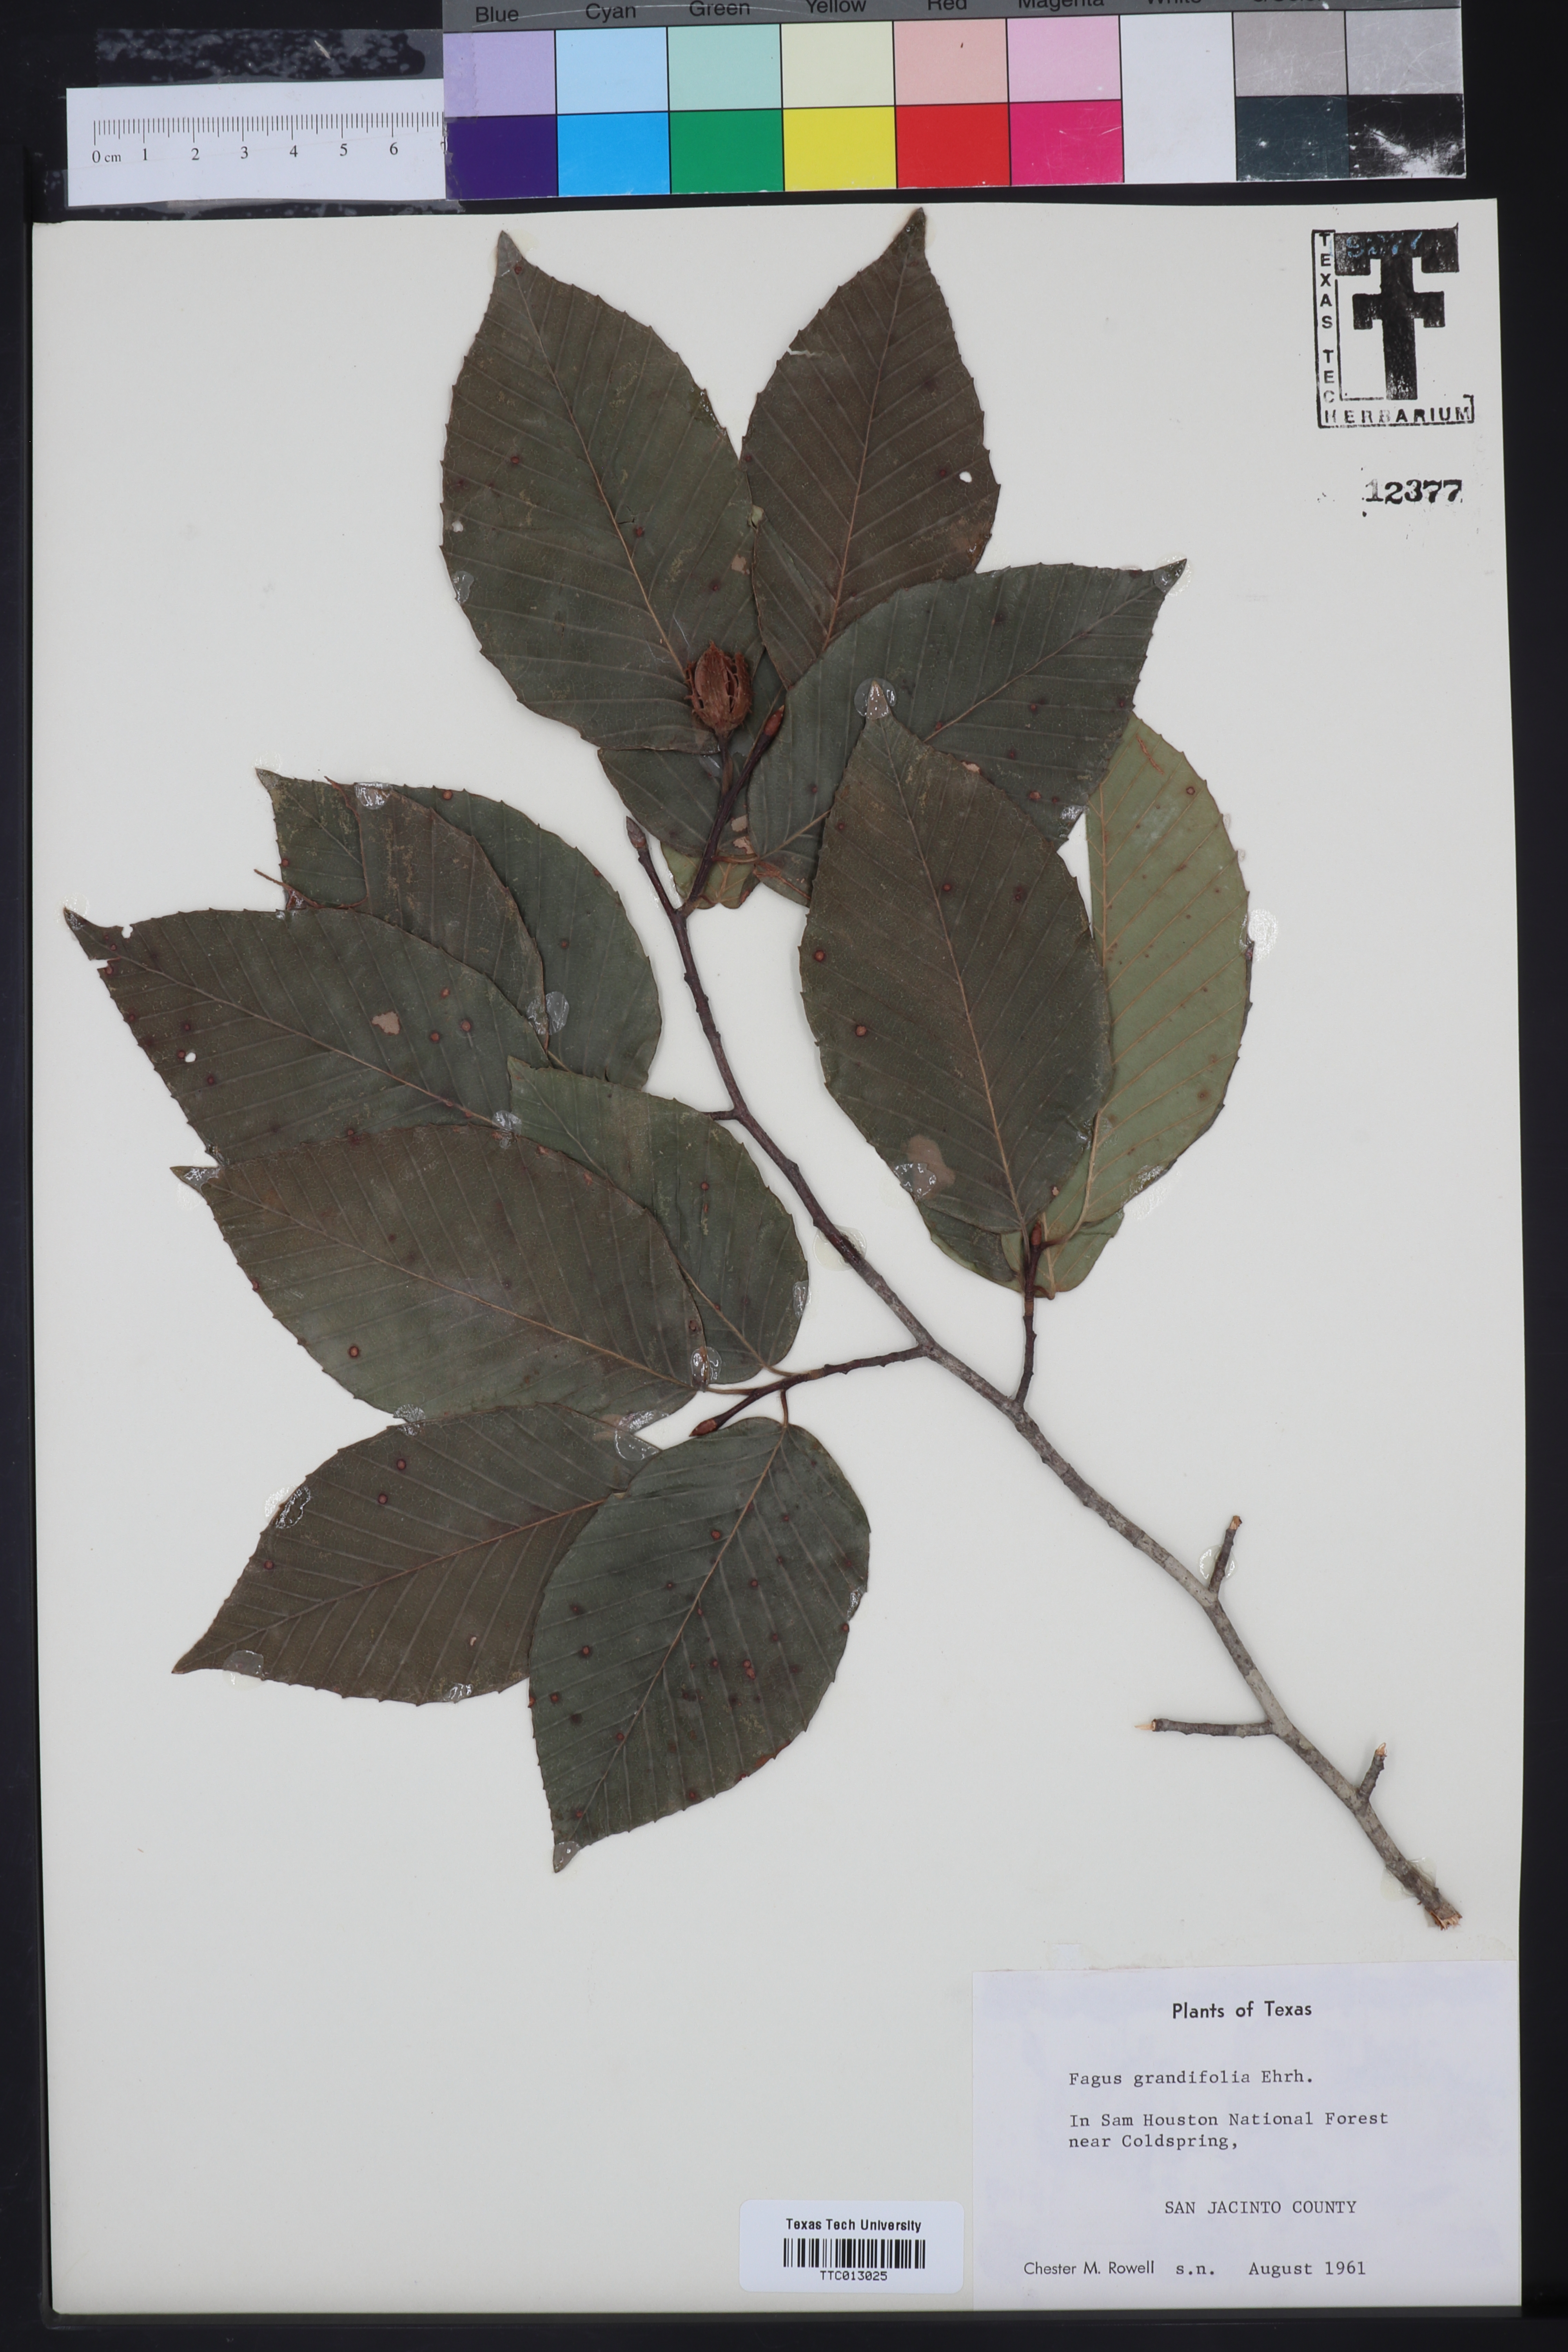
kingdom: Plantae
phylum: Tracheophyta
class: Magnoliopsida
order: Fagales
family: Fagaceae
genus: Fagus
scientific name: Fagus grandifolia
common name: American beech
